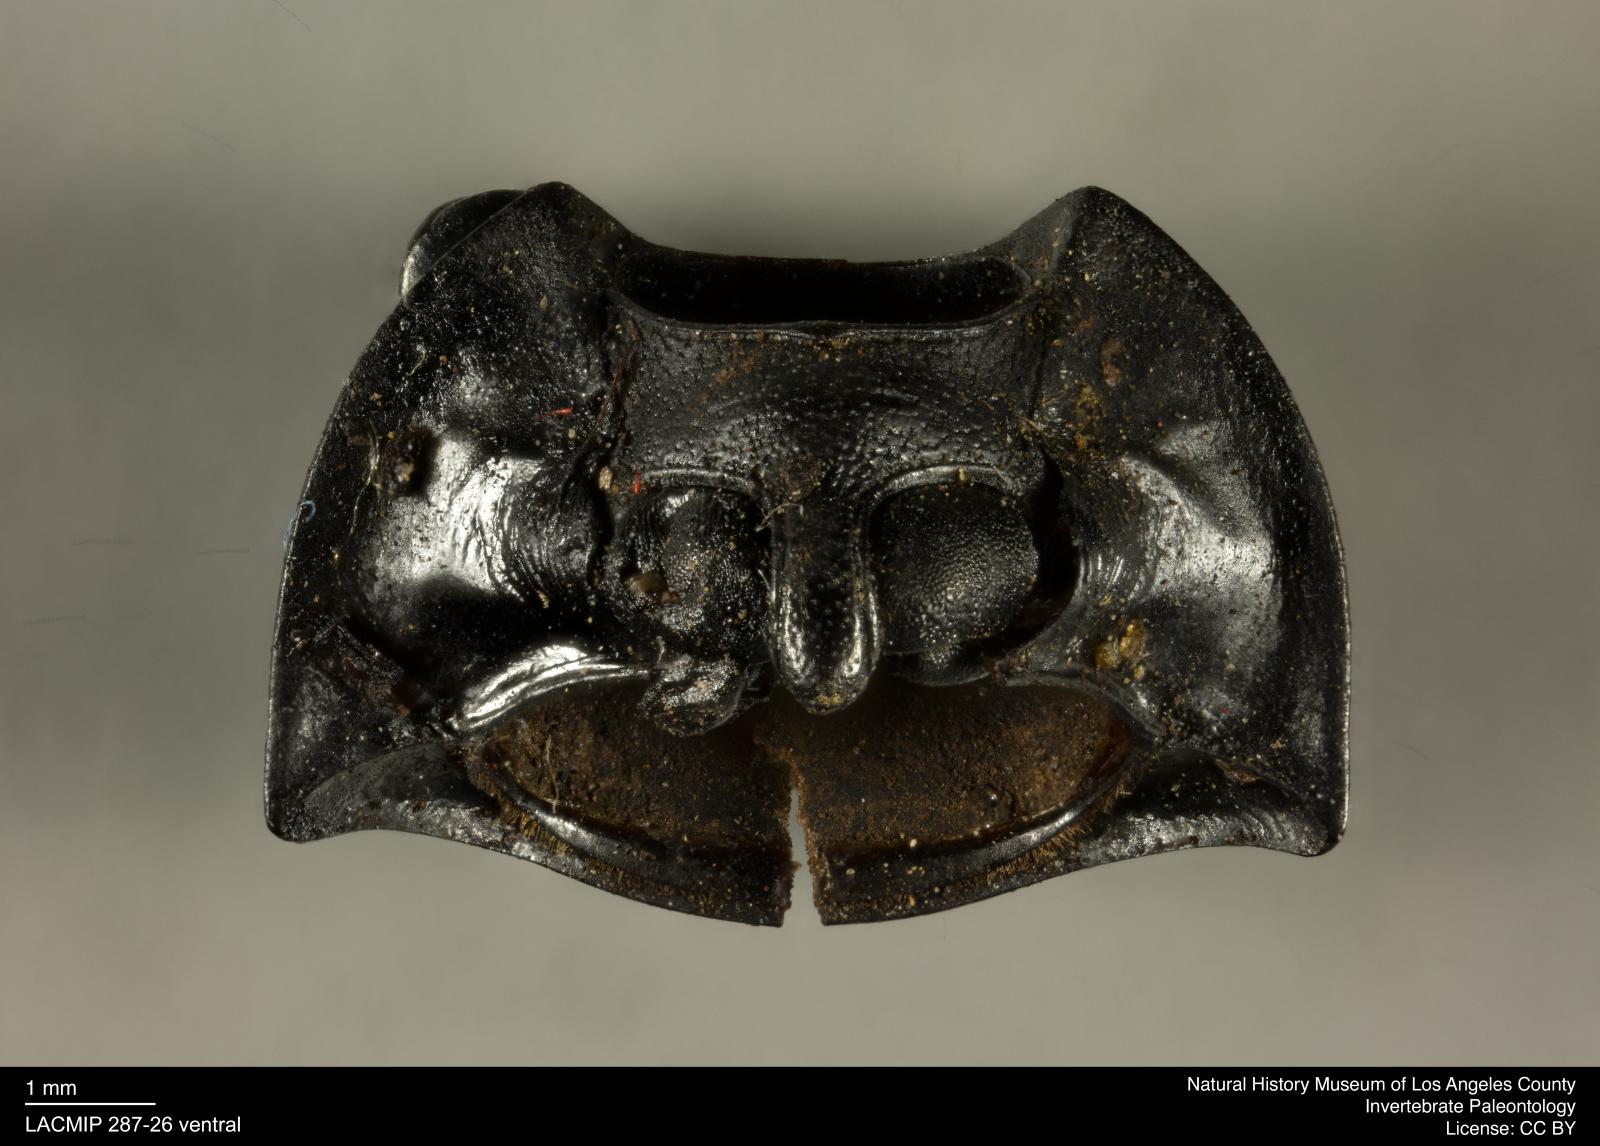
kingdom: Animalia
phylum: Arthropoda
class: Insecta
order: Coleoptera
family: Tenebrionidae
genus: Coniontis
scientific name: Coniontis abdominalis
